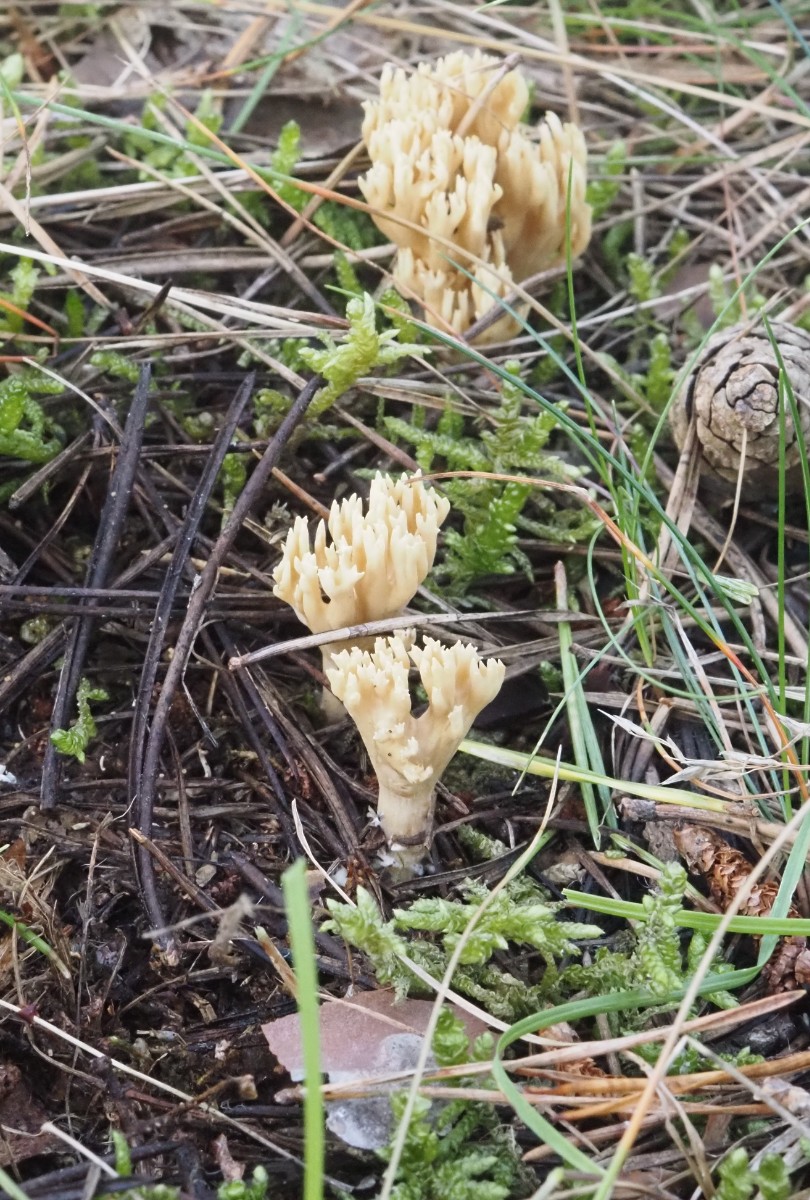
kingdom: Fungi
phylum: Basidiomycota
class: Agaricomycetes
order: Gomphales
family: Gomphaceae
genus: Phaeoclavulina
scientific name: Phaeoclavulina eumorpha
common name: gran-koralsvamp
